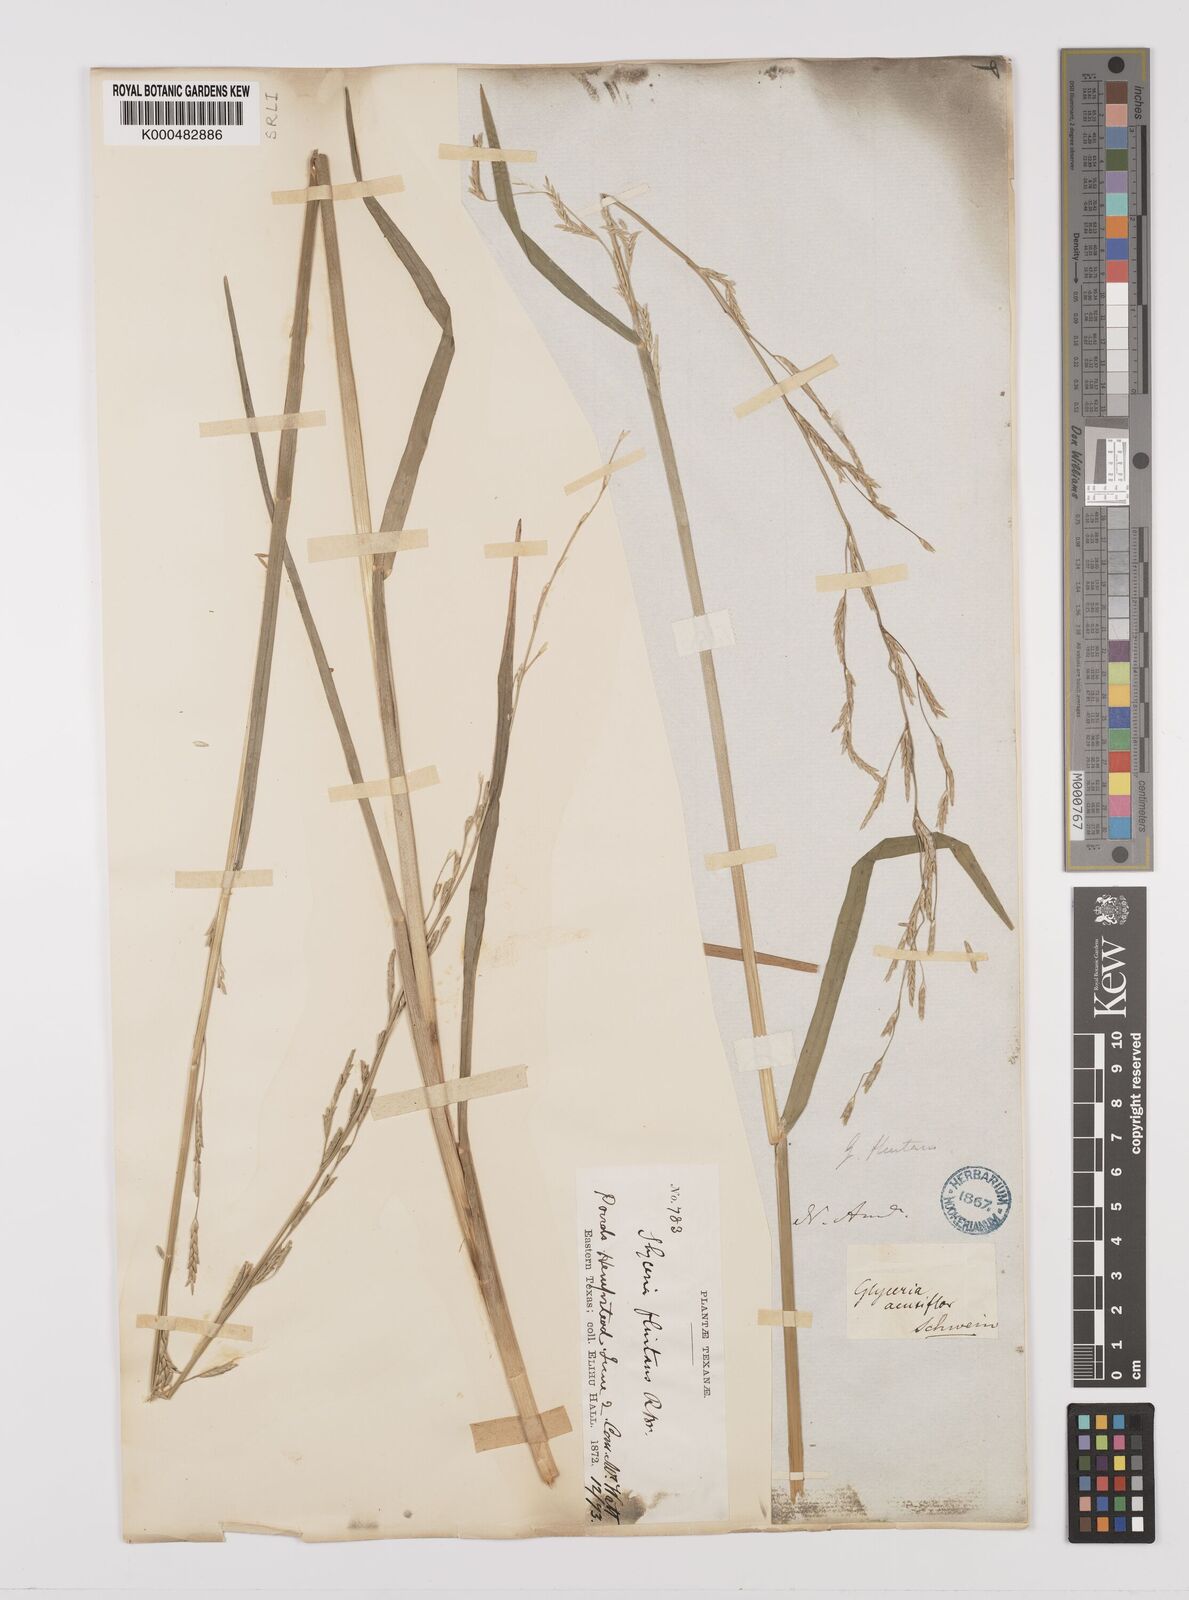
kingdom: Plantae
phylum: Tracheophyta
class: Liliopsida
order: Poales
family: Poaceae
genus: Glyceria
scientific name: Glyceria septentrionalis
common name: Eastern mannagrass
